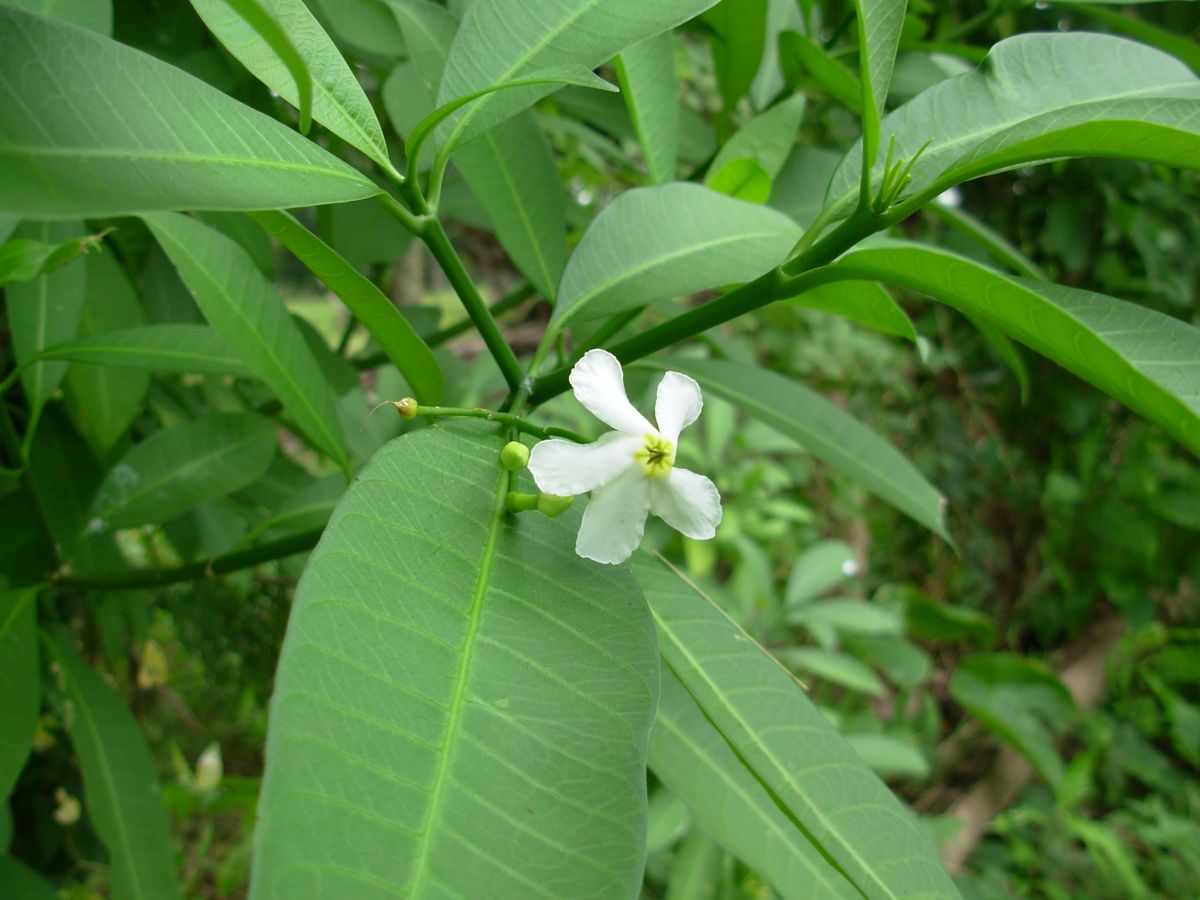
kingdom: Plantae
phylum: Tracheophyta
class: Magnoliopsida
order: Gentianales
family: Apocynaceae
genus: Tabernaemontana
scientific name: Tabernaemontana amygdalifolia
